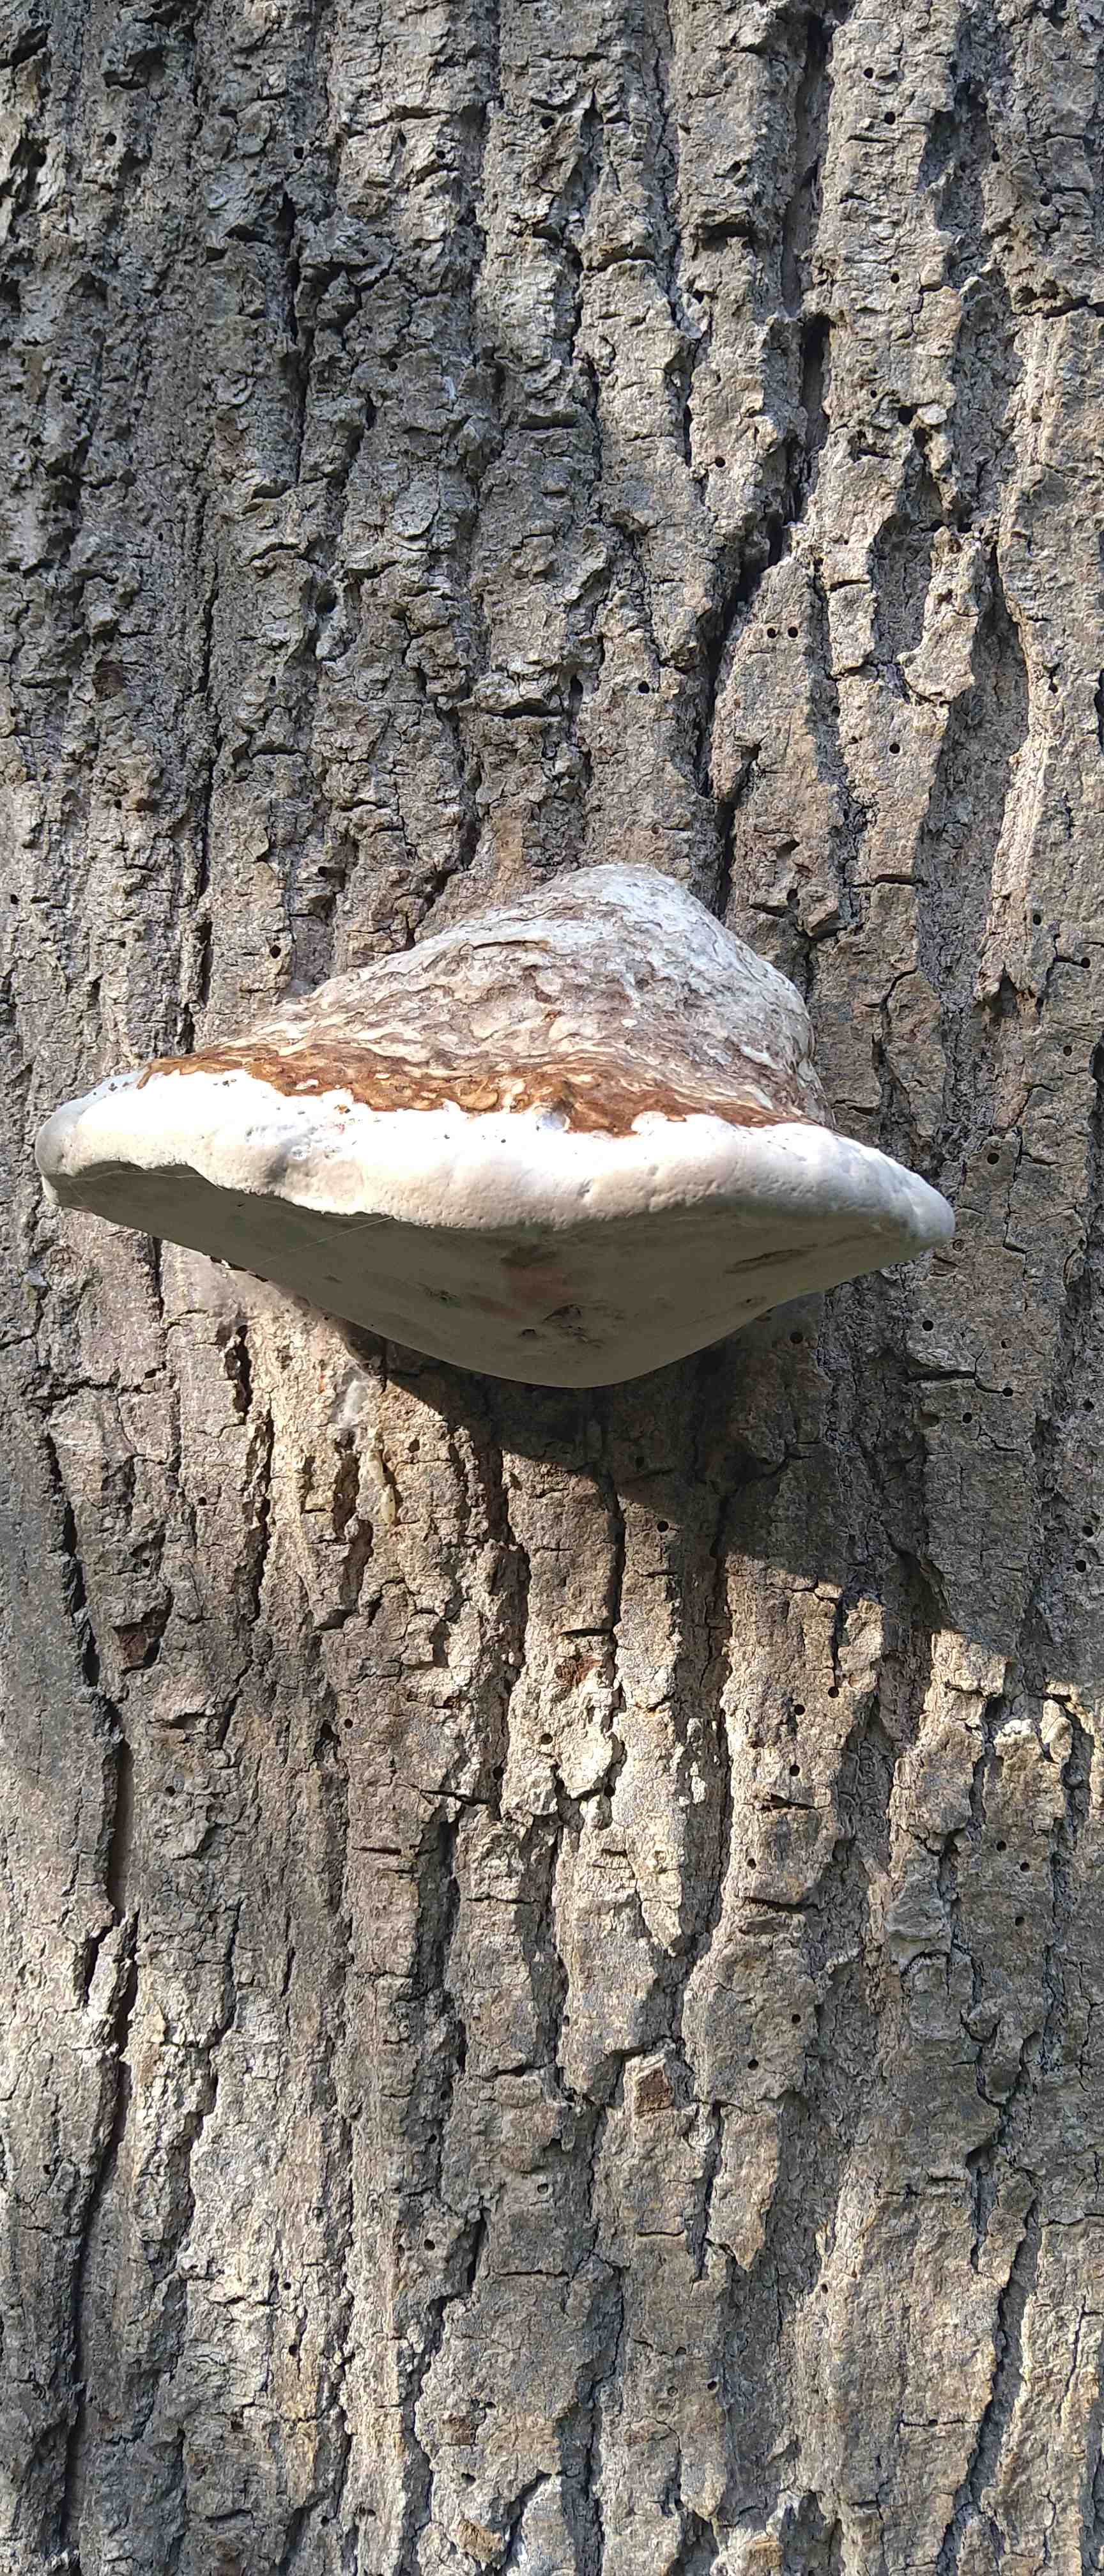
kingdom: Fungi
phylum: Basidiomycota
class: Agaricomycetes
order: Polyporales
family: Polyporaceae
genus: Fomes
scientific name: Fomes fomentarius
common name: tøndersvamp
